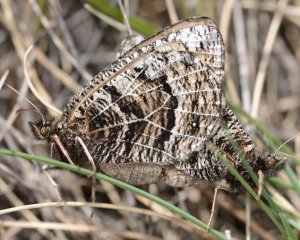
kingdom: Animalia
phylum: Arthropoda
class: Insecta
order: Lepidoptera
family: Nymphalidae
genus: Oeneis
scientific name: Oeneis alberta
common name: Alberta Arctic
